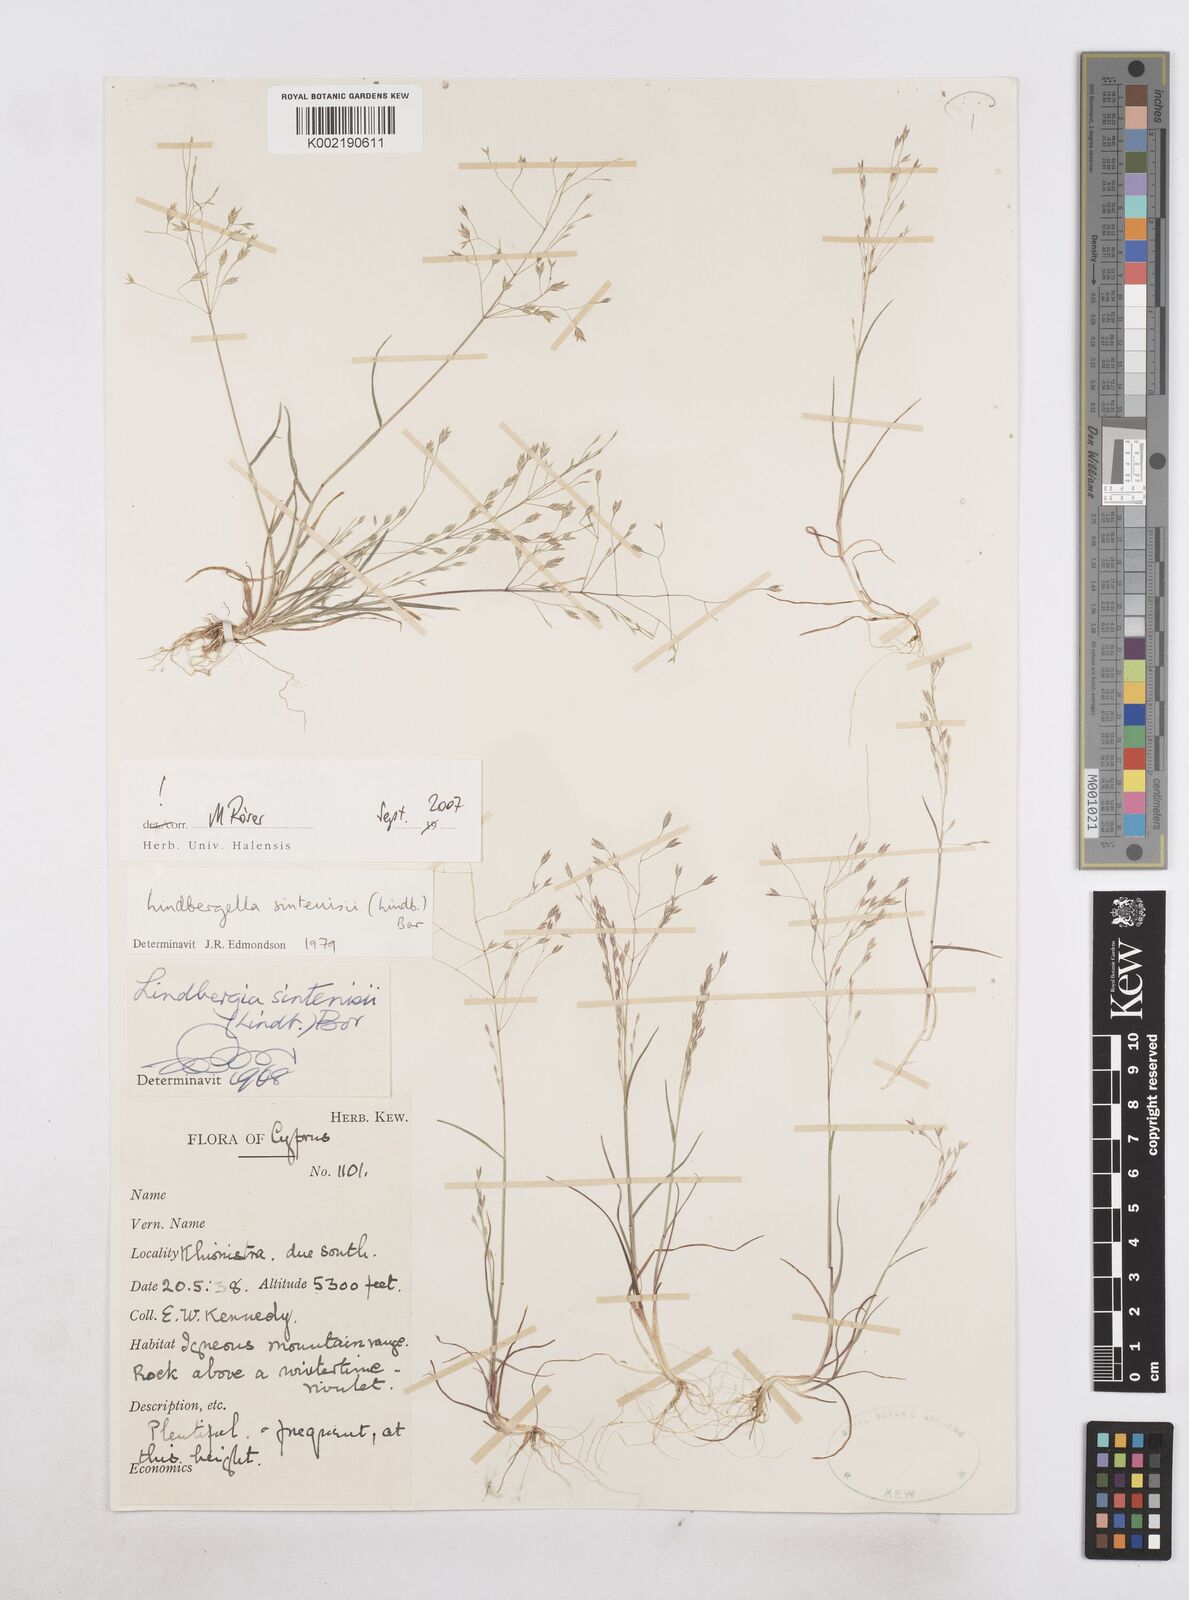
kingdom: Plantae
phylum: Tracheophyta
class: Liliopsida
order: Poales
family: Poaceae
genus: Poa
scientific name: Poa sintenisii
